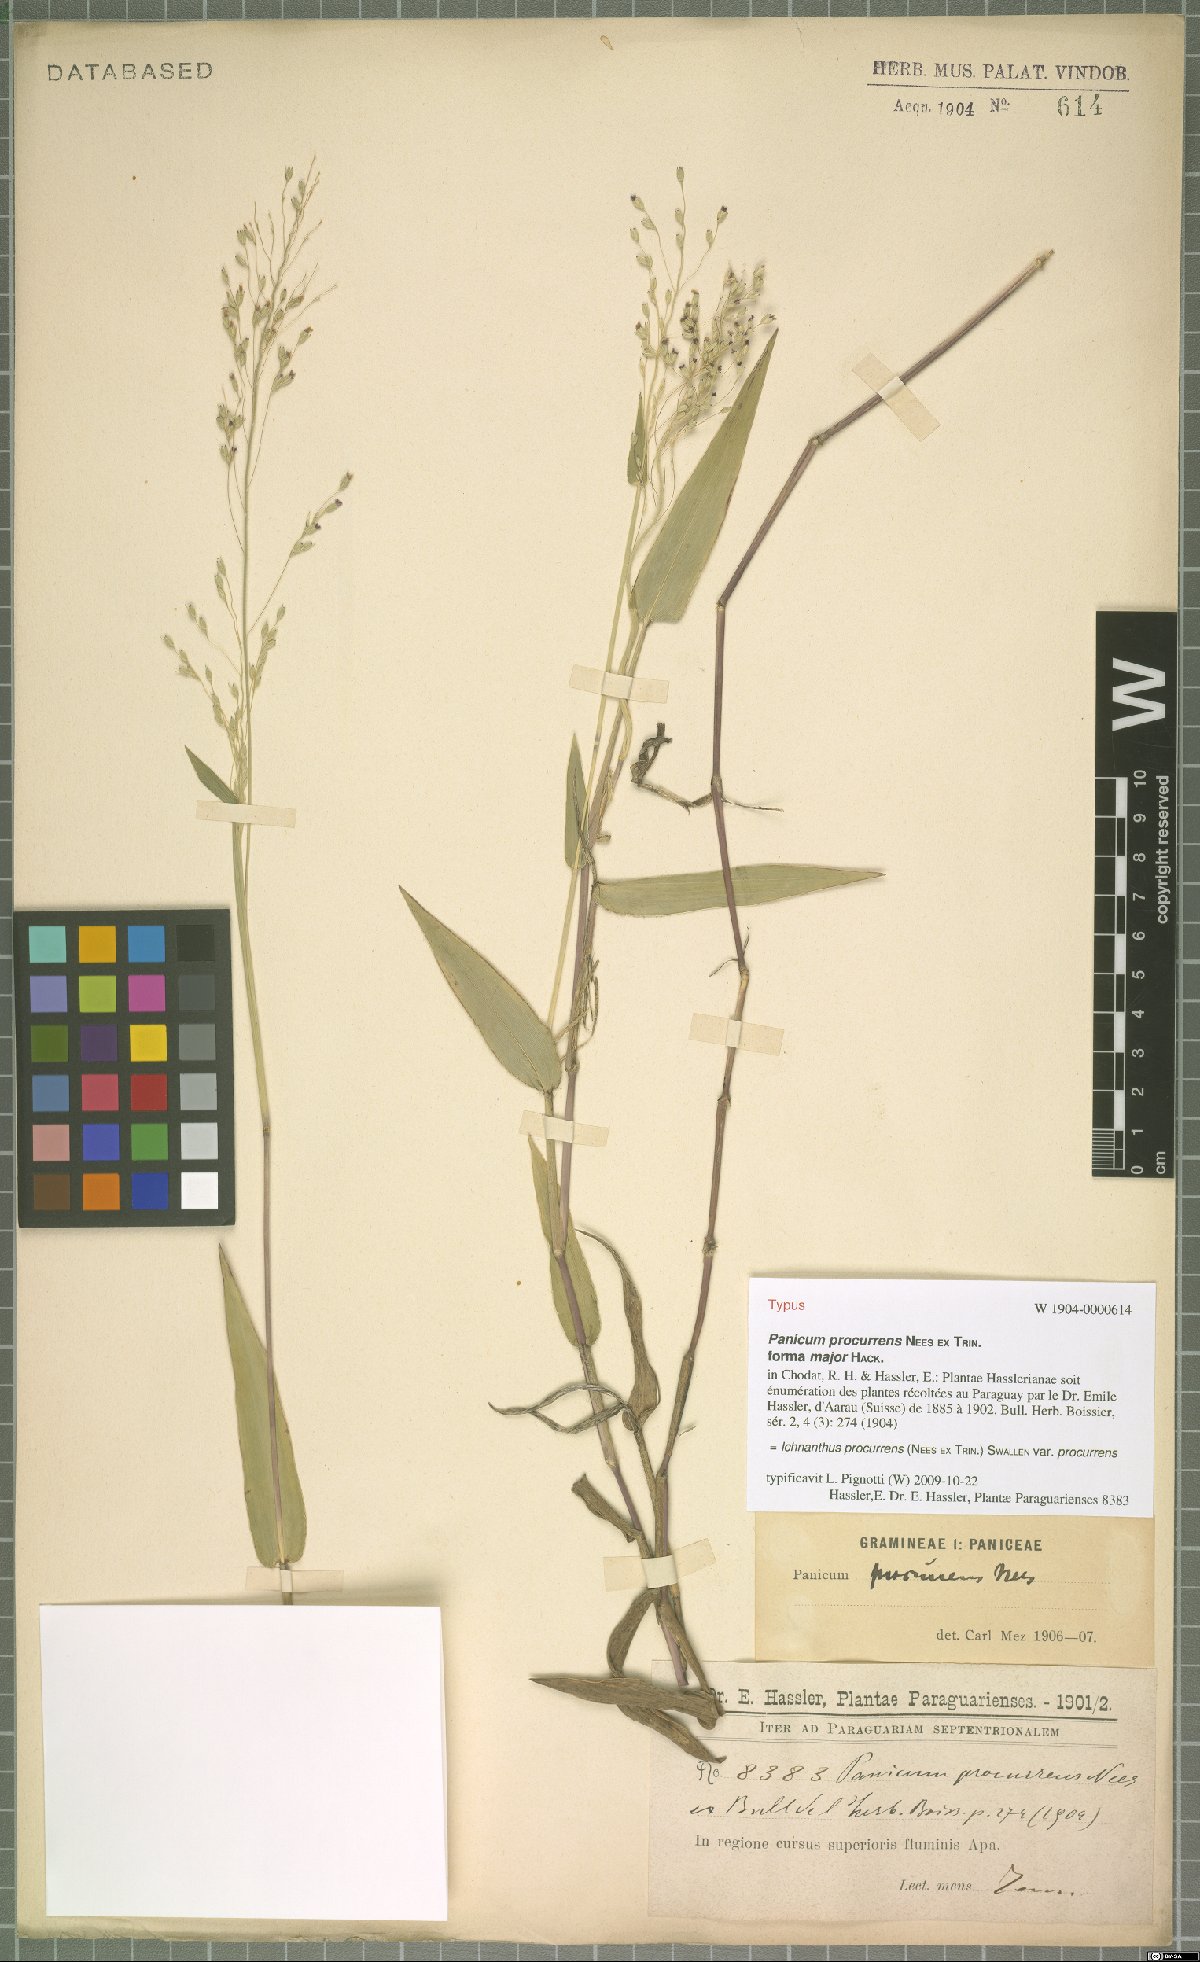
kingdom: Plantae
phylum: Tracheophyta
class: Liliopsida
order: Poales
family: Poaceae
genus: Oedochloa
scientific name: Oedochloa procurrens
